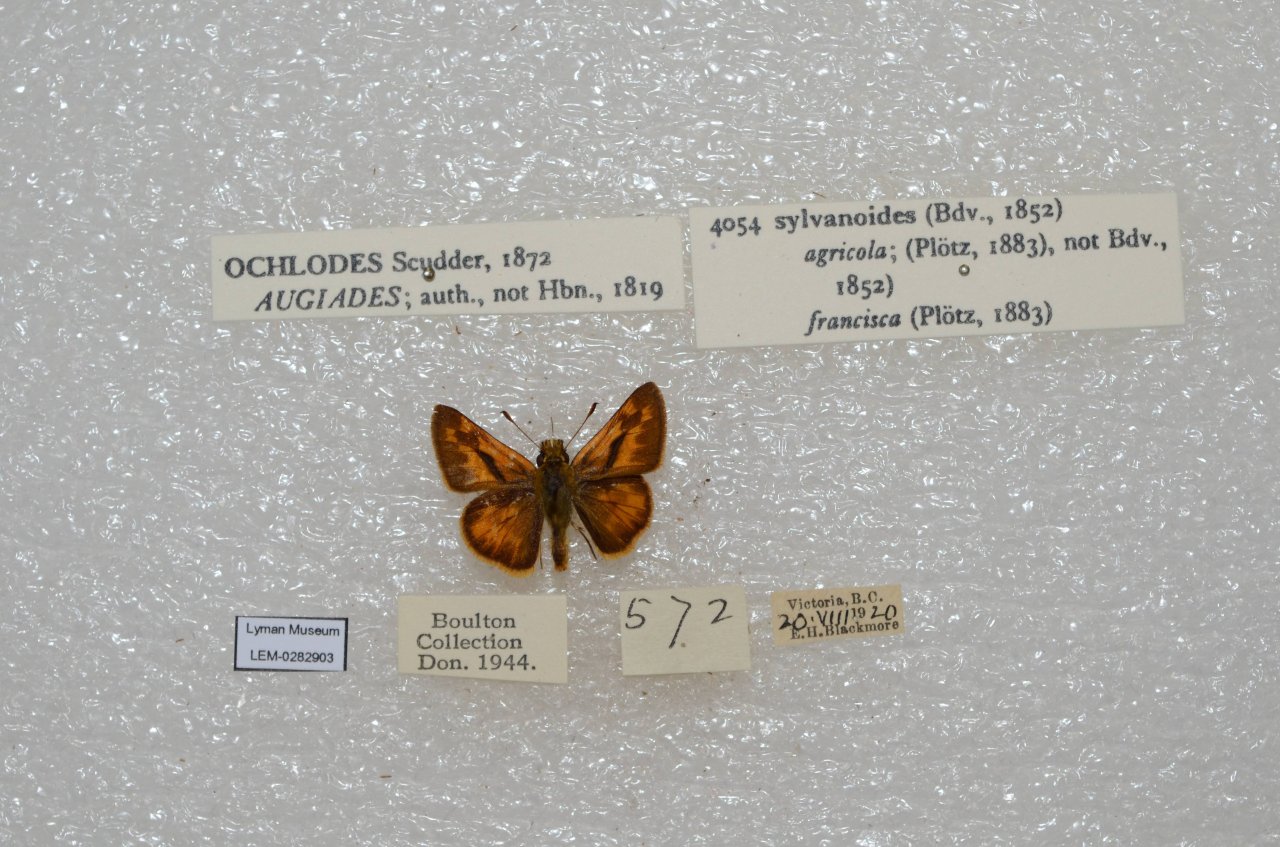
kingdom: Animalia
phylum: Arthropoda
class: Insecta
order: Lepidoptera
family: Hesperiidae
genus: Ochlodes
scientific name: Ochlodes sylvanoides
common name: Woodland Skipper
